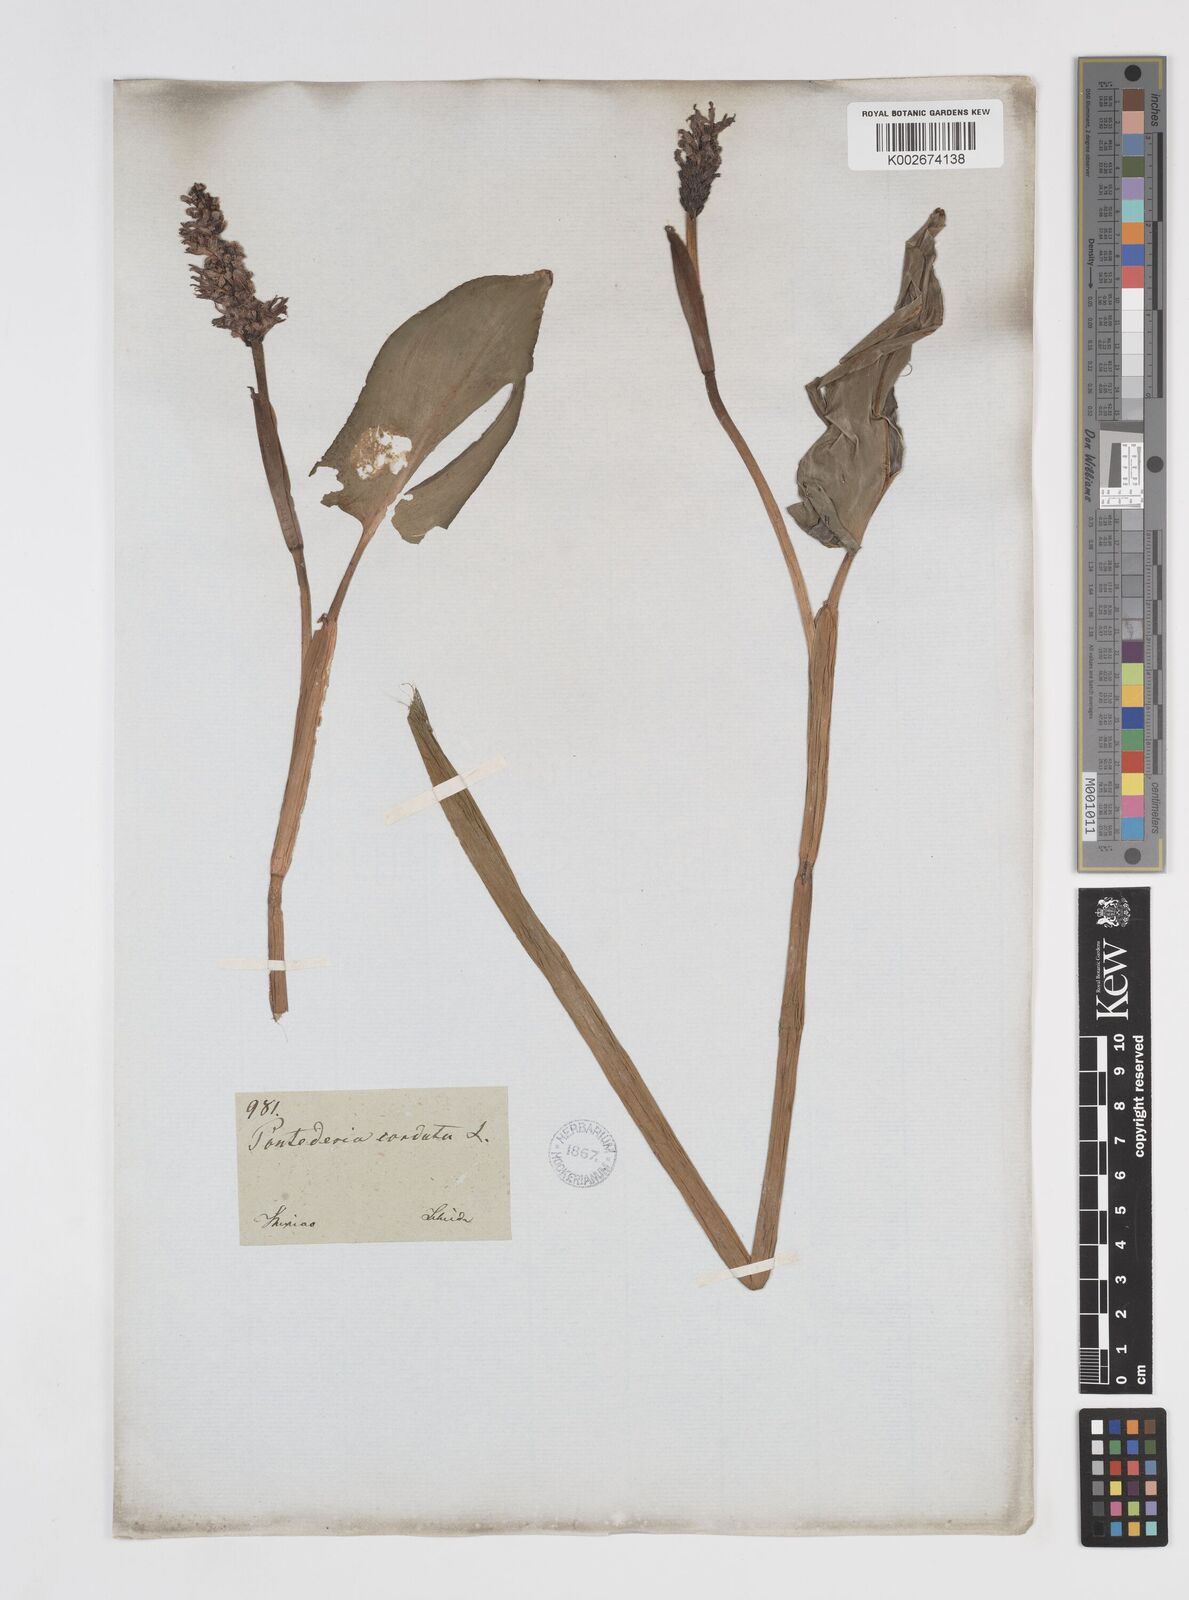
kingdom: Plantae
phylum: Tracheophyta
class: Liliopsida
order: Commelinales
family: Pontederiaceae
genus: Pontederia
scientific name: Pontederia sagittata
